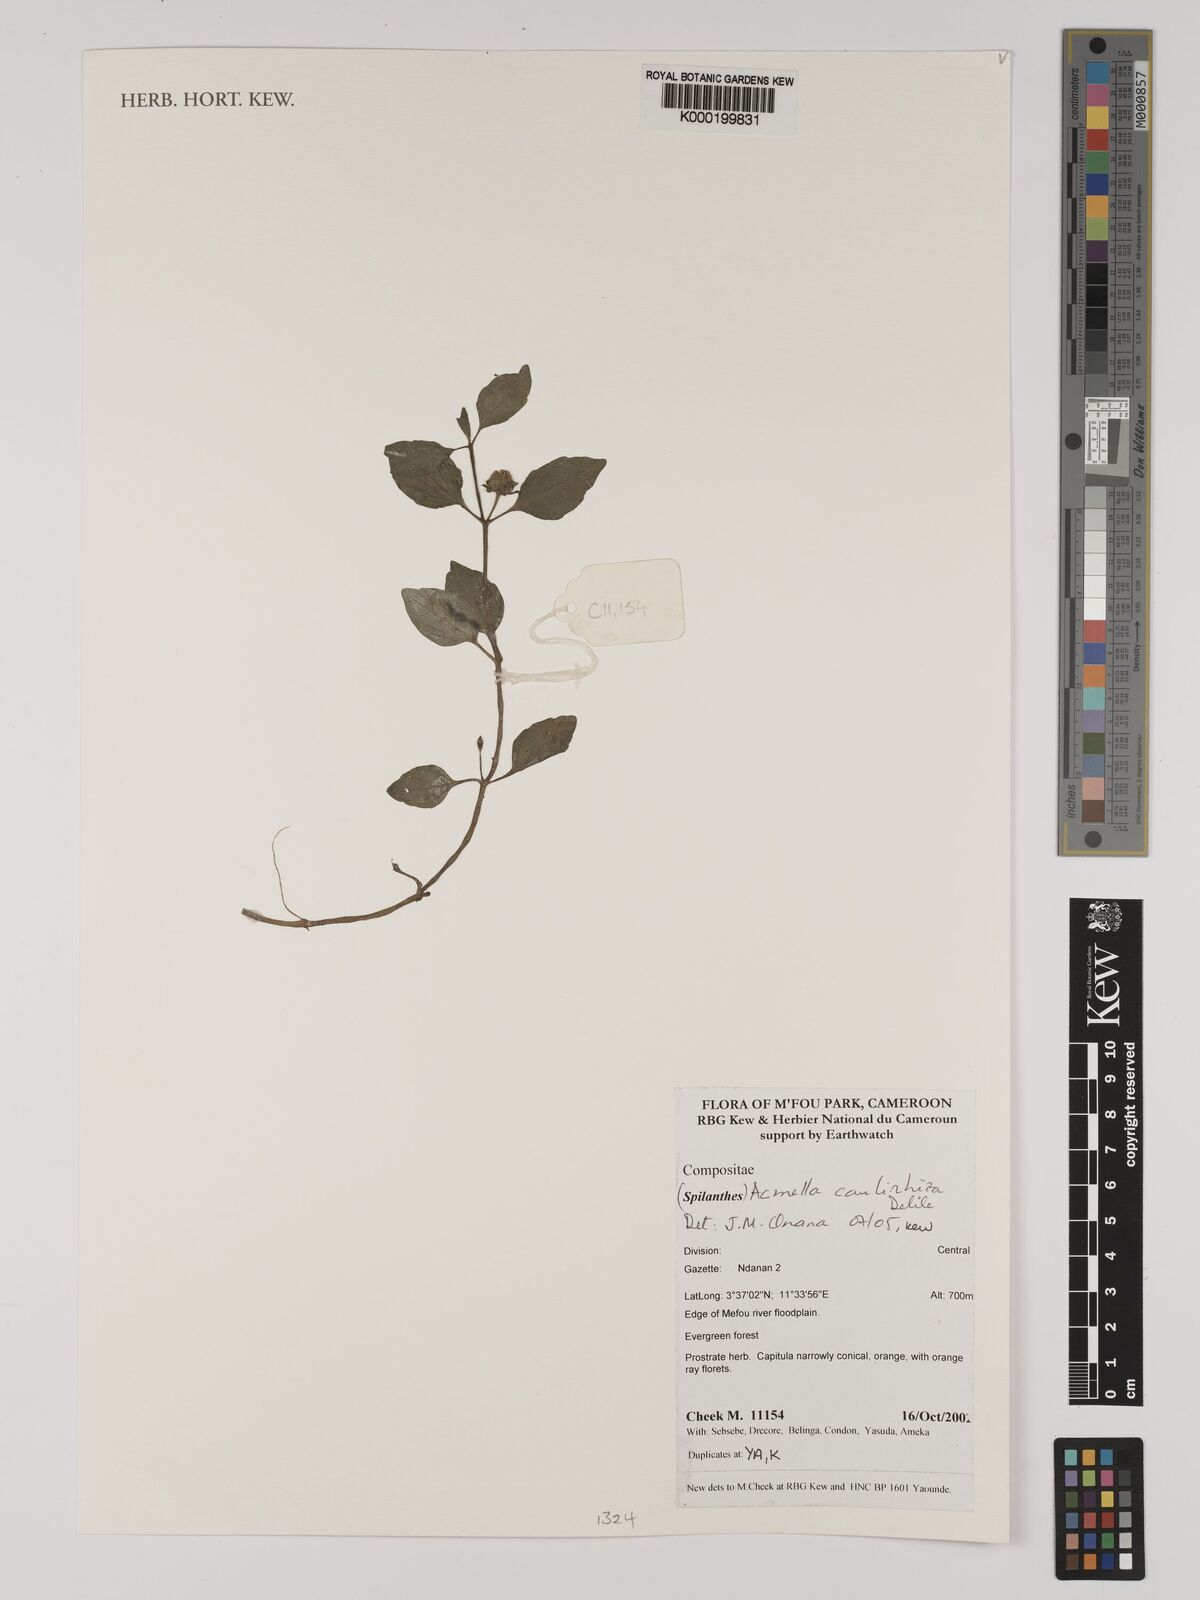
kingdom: Plantae
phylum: Tracheophyta
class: Magnoliopsida
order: Asterales
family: Asteraceae
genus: Acmella
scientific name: Acmella caulirhiza
